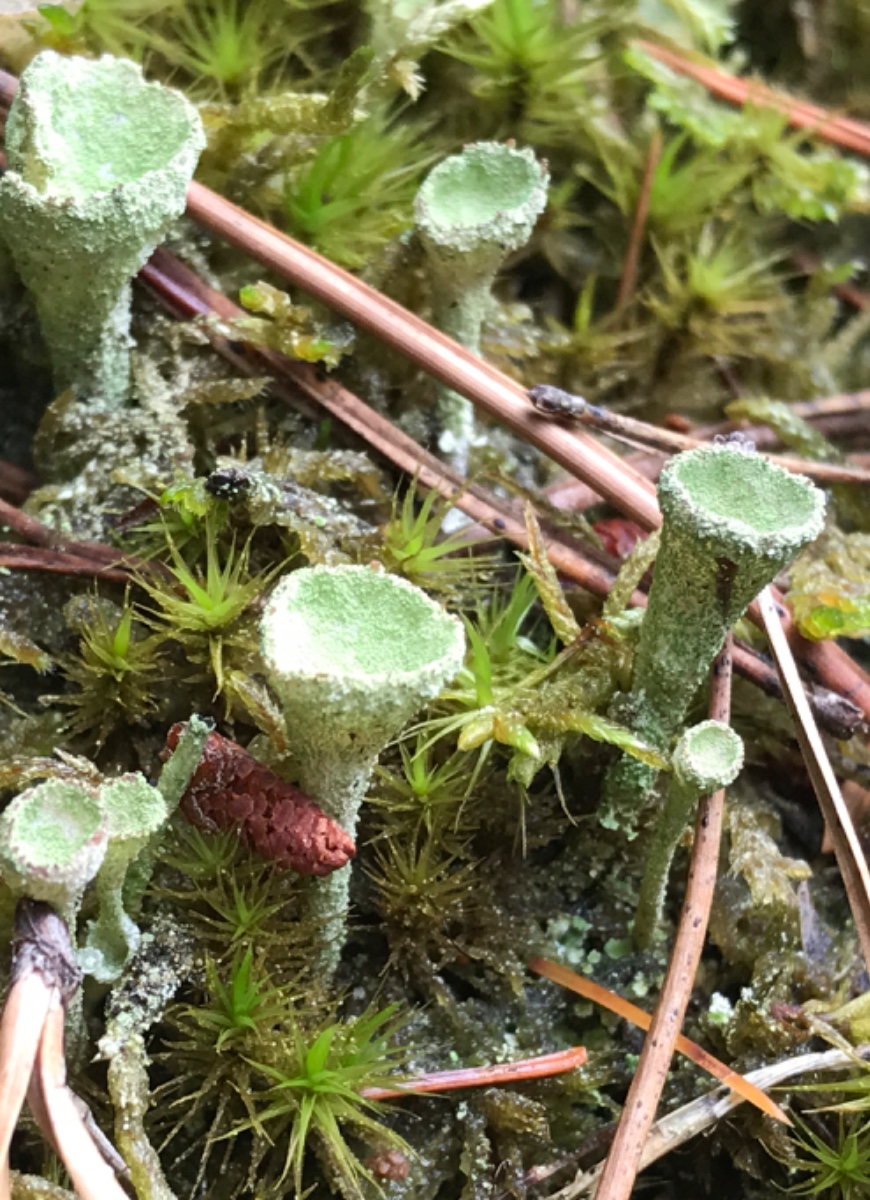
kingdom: Fungi
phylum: Ascomycota
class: Lecanoromycetes
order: Lecanorales
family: Cladoniaceae
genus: Cladonia
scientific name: Cladonia
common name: brungrøn bægerlav
